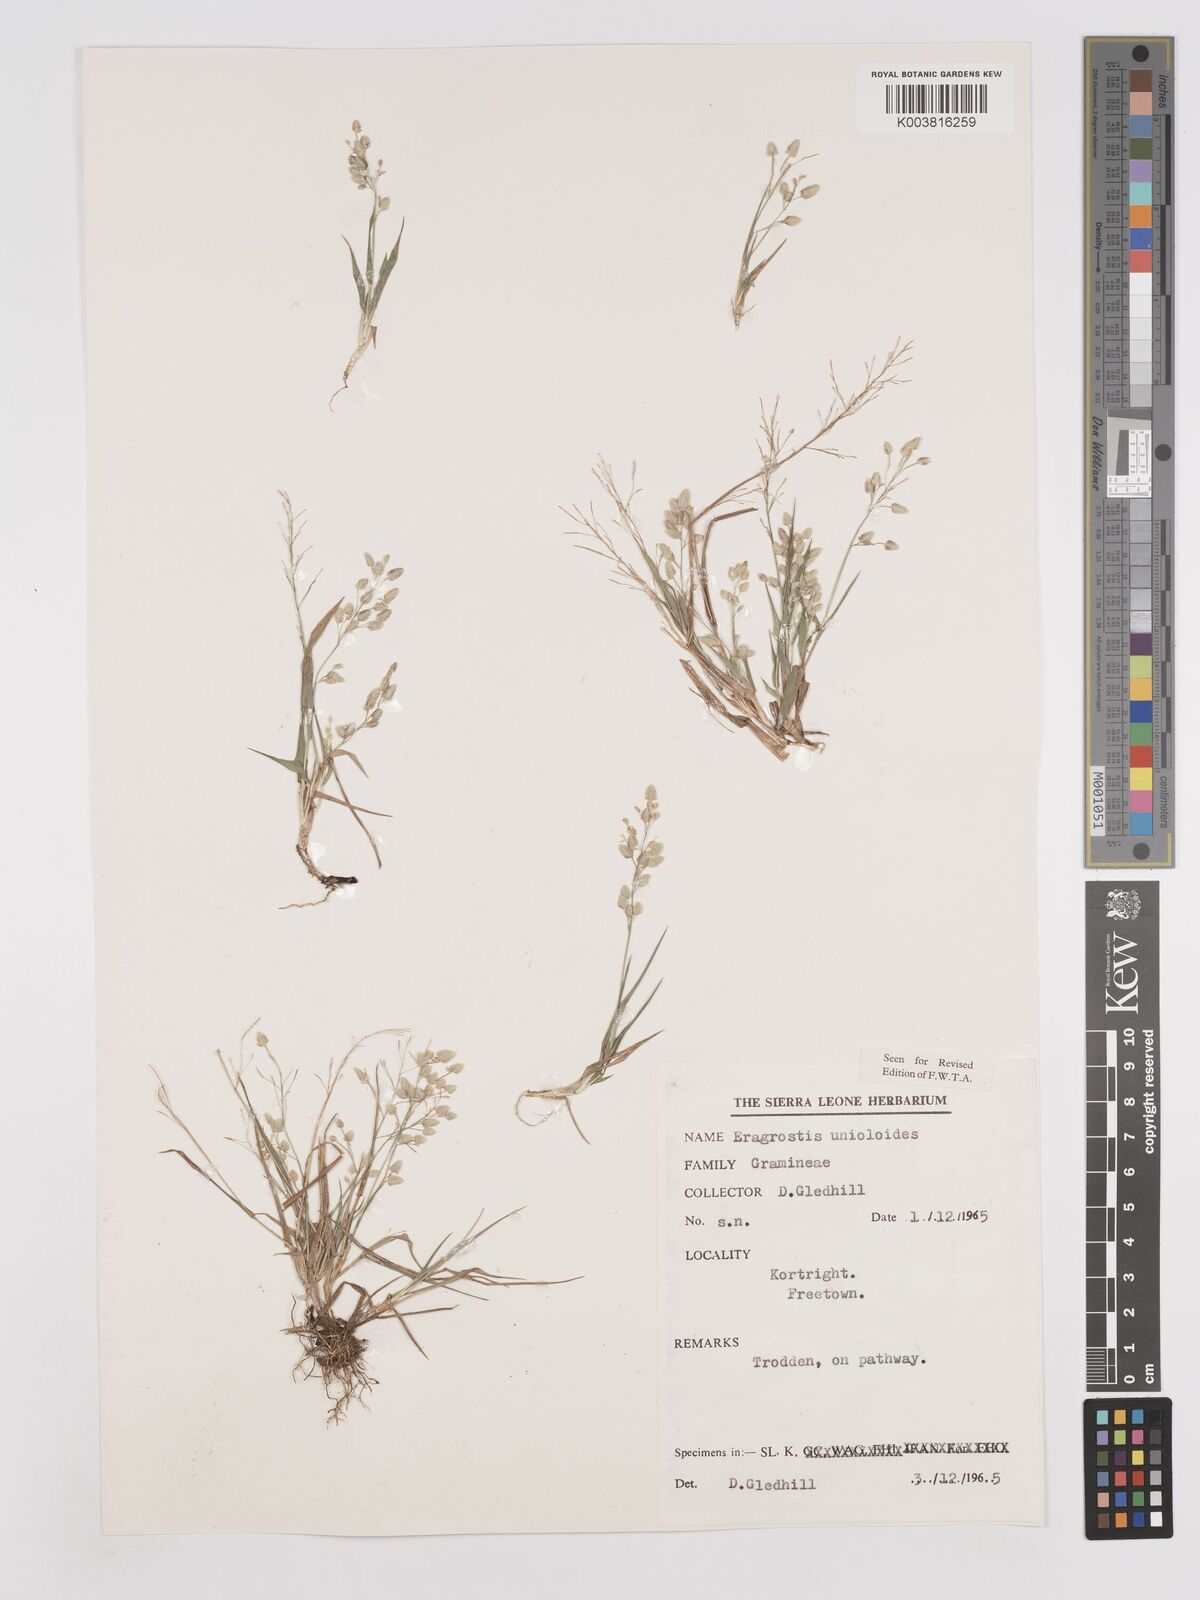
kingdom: Plantae
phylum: Tracheophyta
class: Liliopsida
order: Poales
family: Poaceae
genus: Eragrostis
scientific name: Eragrostis unioloides
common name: Chinese lovegrass
